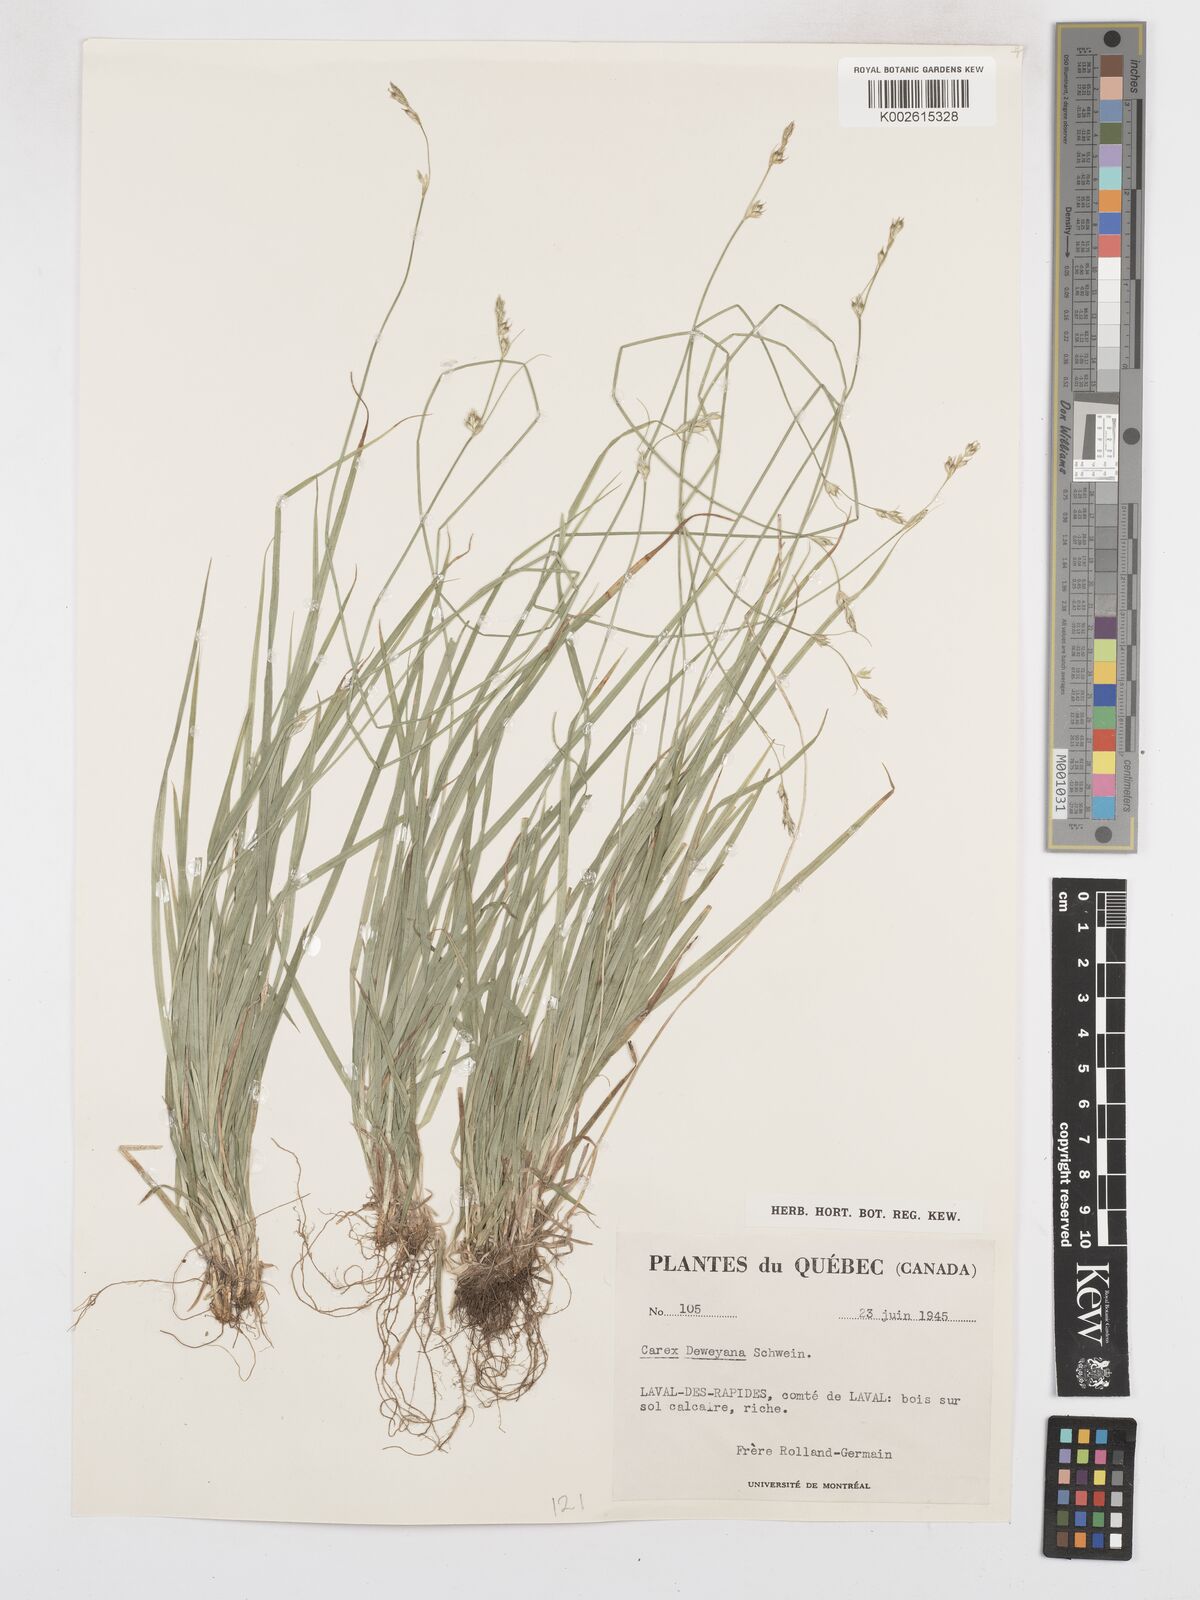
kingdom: Plantae
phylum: Tracheophyta
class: Liliopsida
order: Poales
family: Cyperaceae
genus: Carex
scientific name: Carex deweyana
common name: Dewey's sedge
